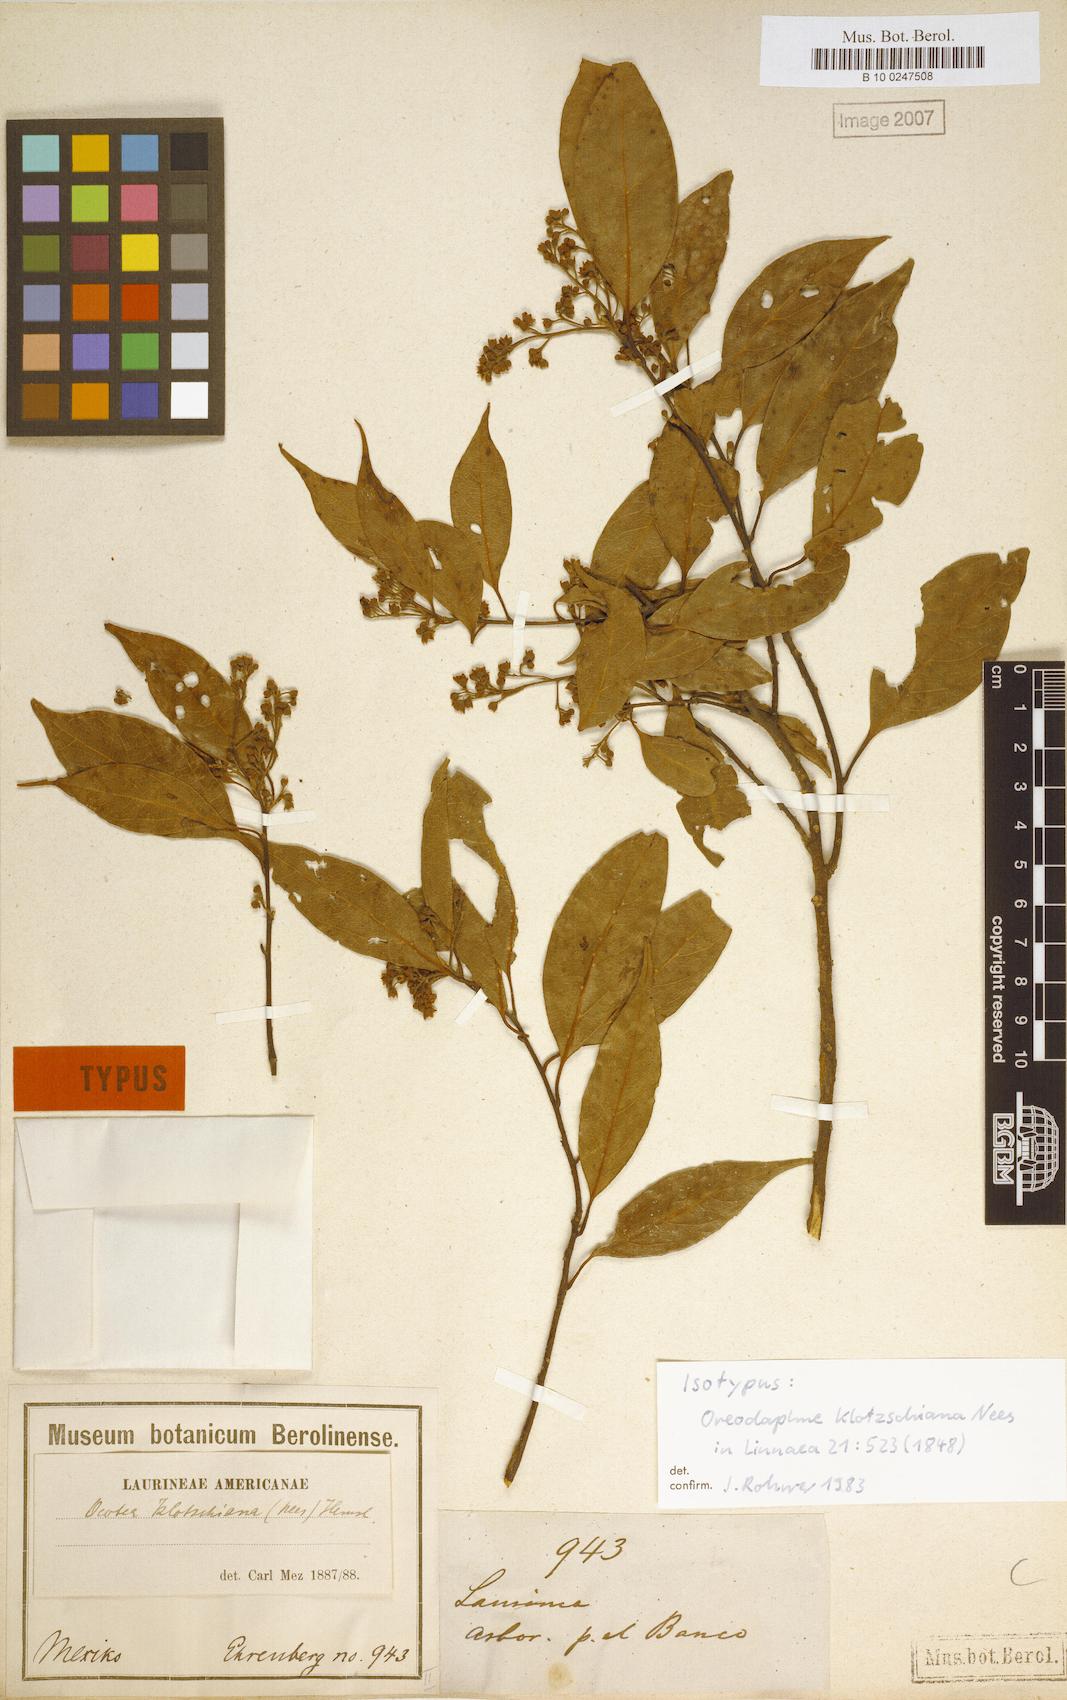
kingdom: Plantae
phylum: Tracheophyta
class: Magnoliopsida
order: Laurales
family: Lauraceae
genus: Ocotea
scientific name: Ocotea klotzschiana
